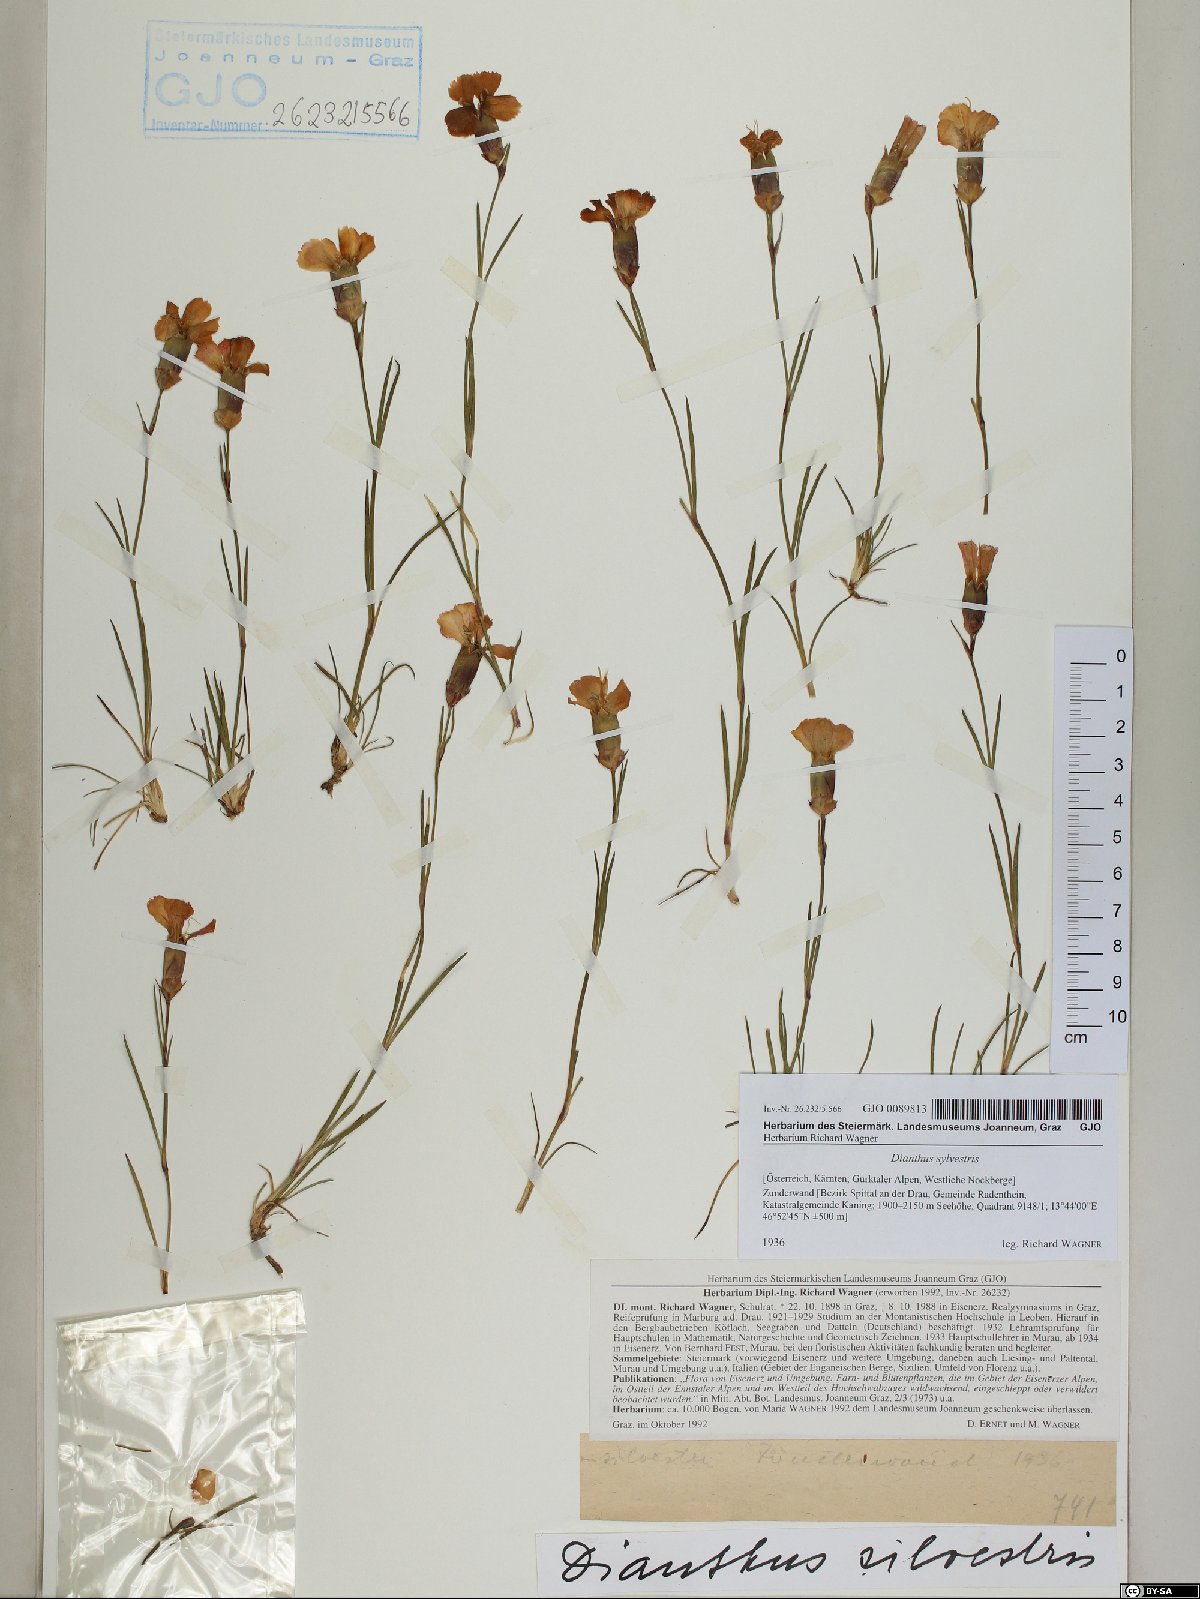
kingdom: Plantae
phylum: Tracheophyta
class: Magnoliopsida
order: Caryophyllales
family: Caryophyllaceae
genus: Dianthus
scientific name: Dianthus sylvestris
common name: Wood pink
